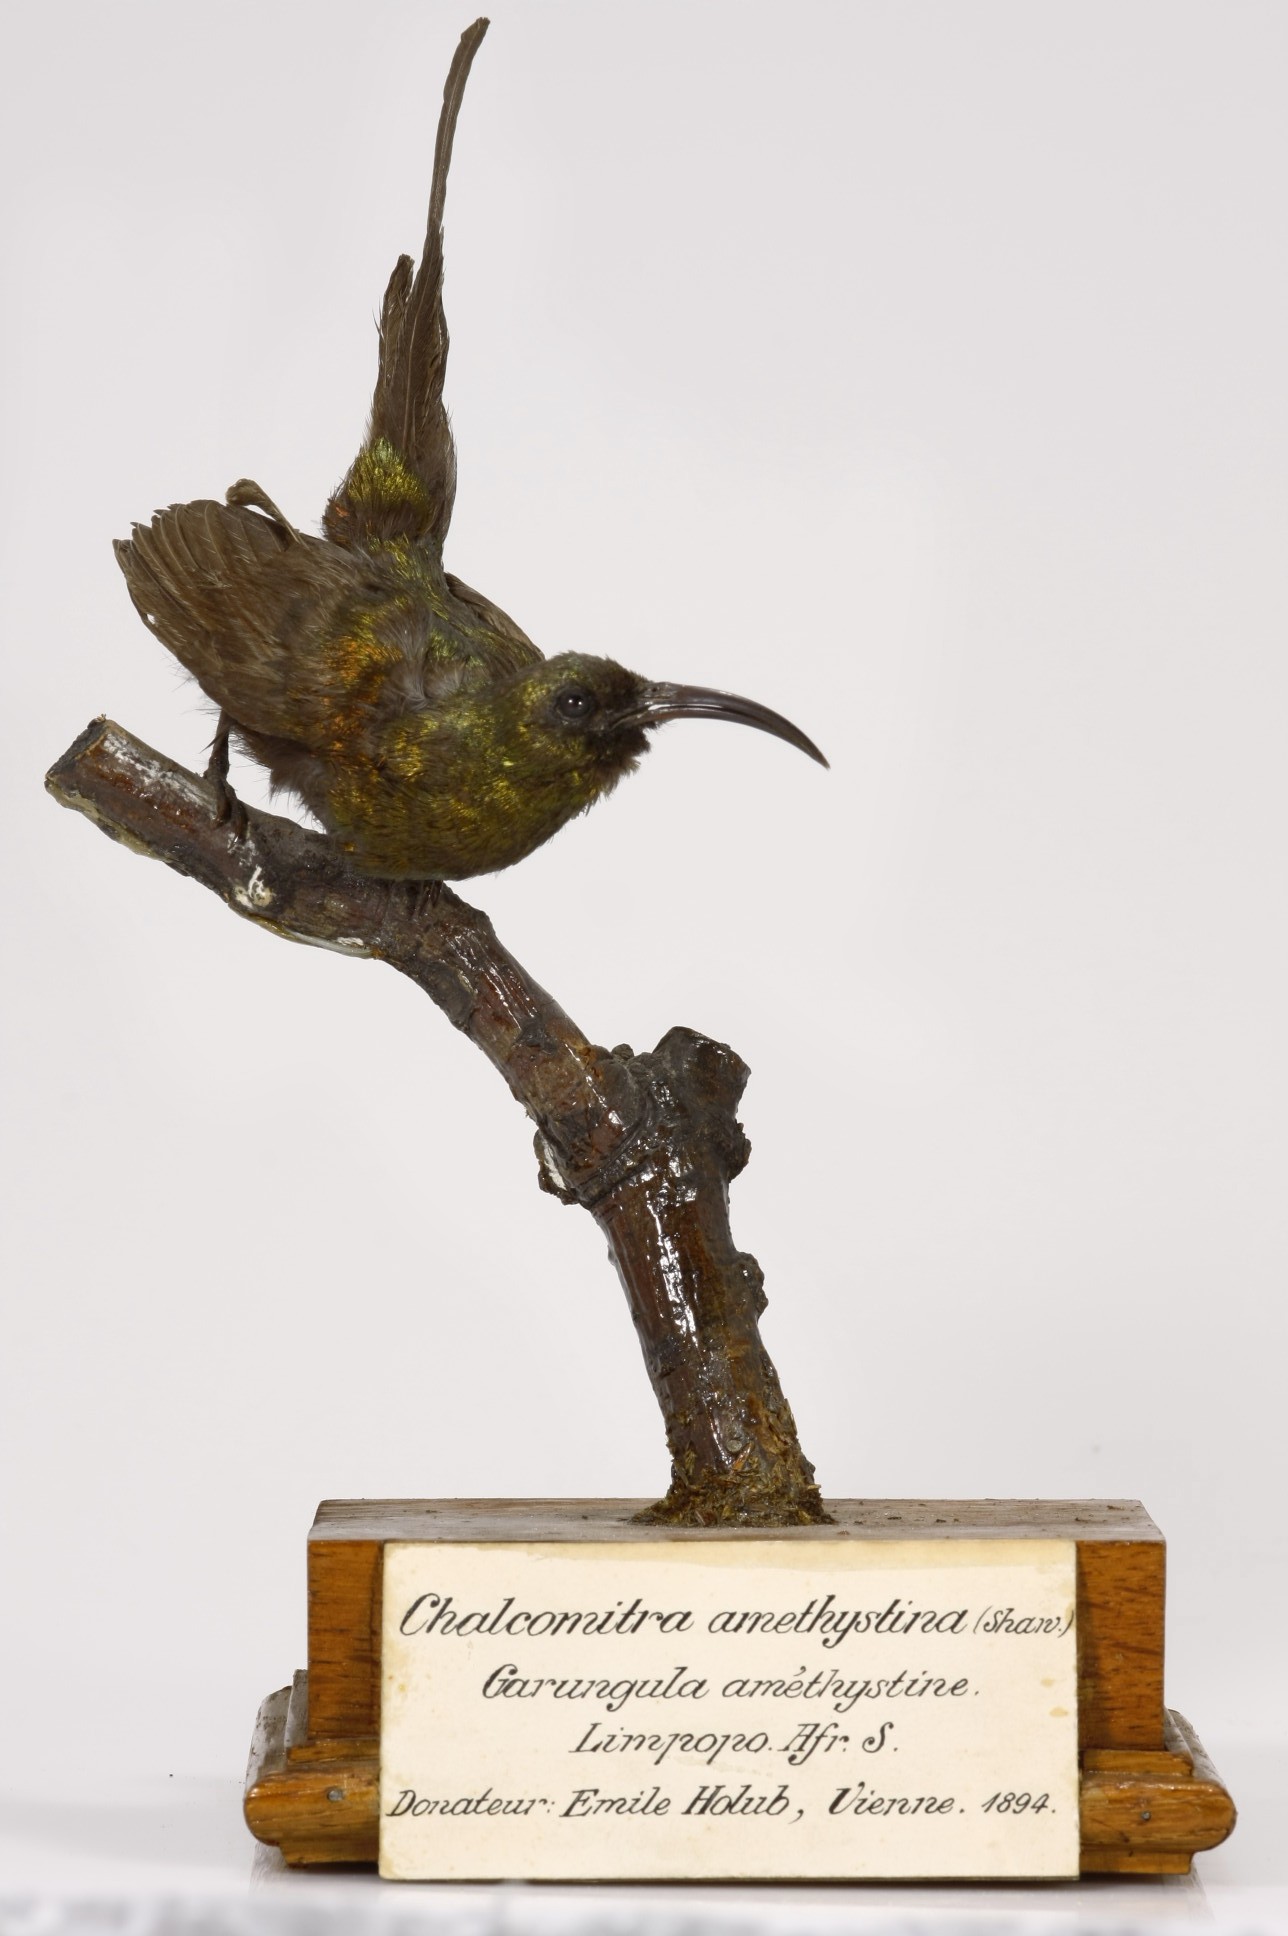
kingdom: Animalia
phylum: Chordata
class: Aves
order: Passeriformes
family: Nectariniidae
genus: Nectarinia
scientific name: Nectarinia kilimensis
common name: Bronzy sunbird
